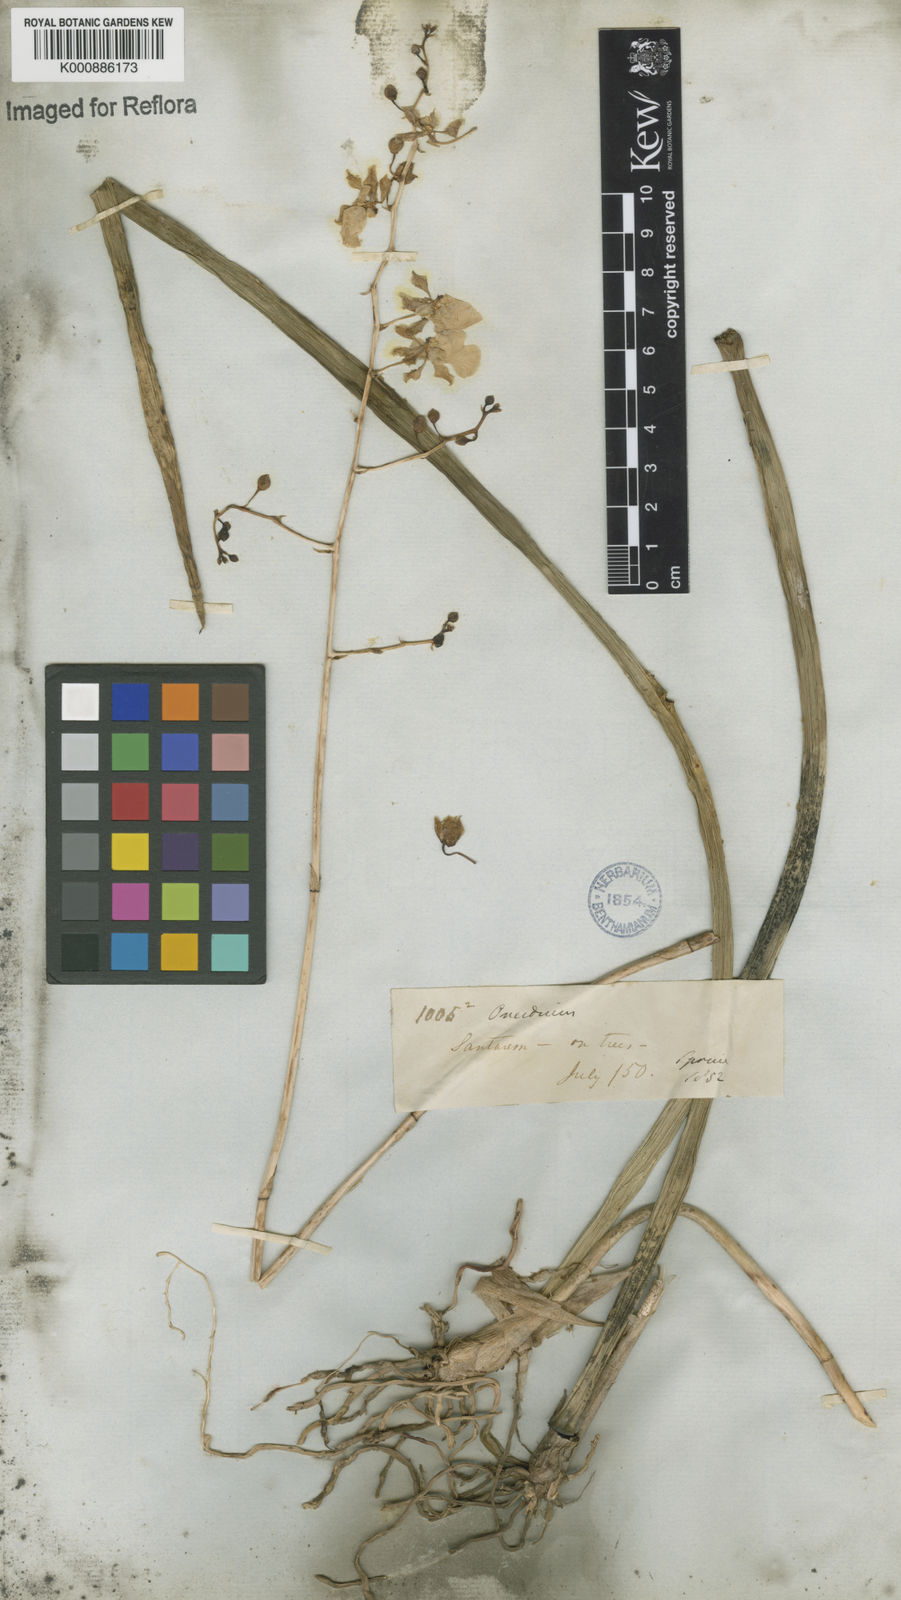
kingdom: Plantae
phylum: Tracheophyta
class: Liliopsida
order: Asparagales
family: Orchidaceae
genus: Trichocentrum
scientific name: Trichocentrum cebolleta
